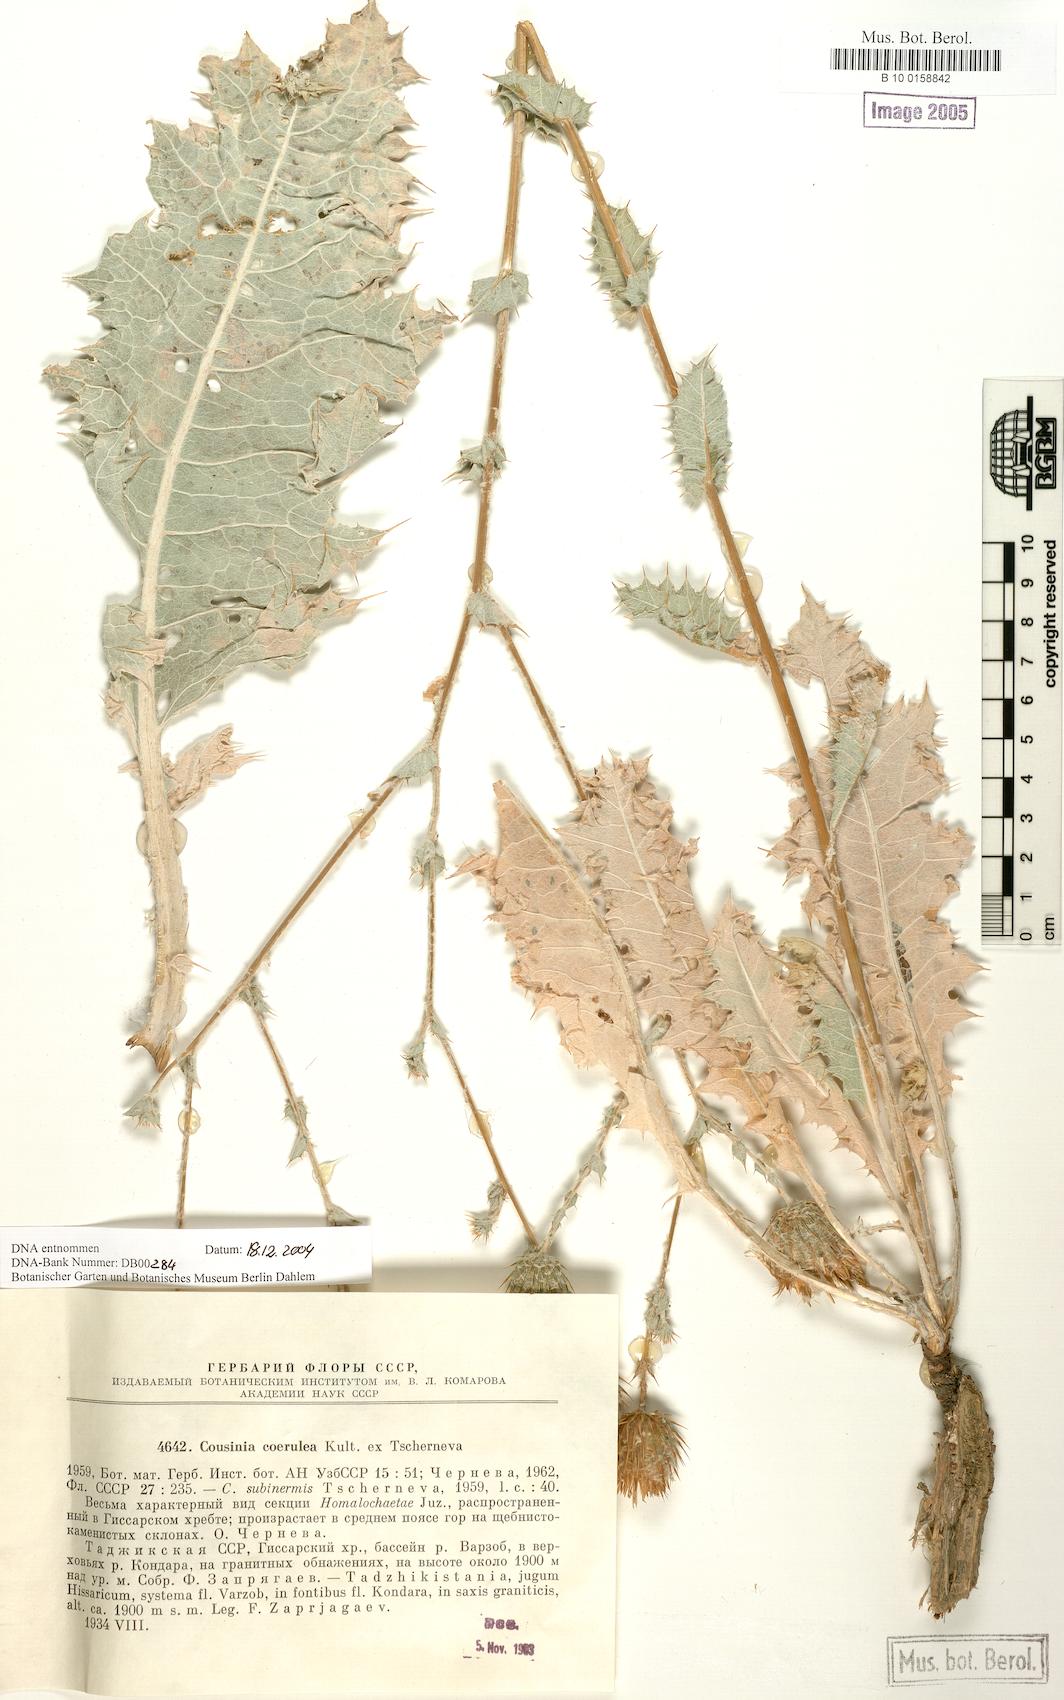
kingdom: Plantae
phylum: Tracheophyta
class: Magnoliopsida
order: Asterales
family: Asteraceae
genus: Cousinia
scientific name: Cousinia coerulea
